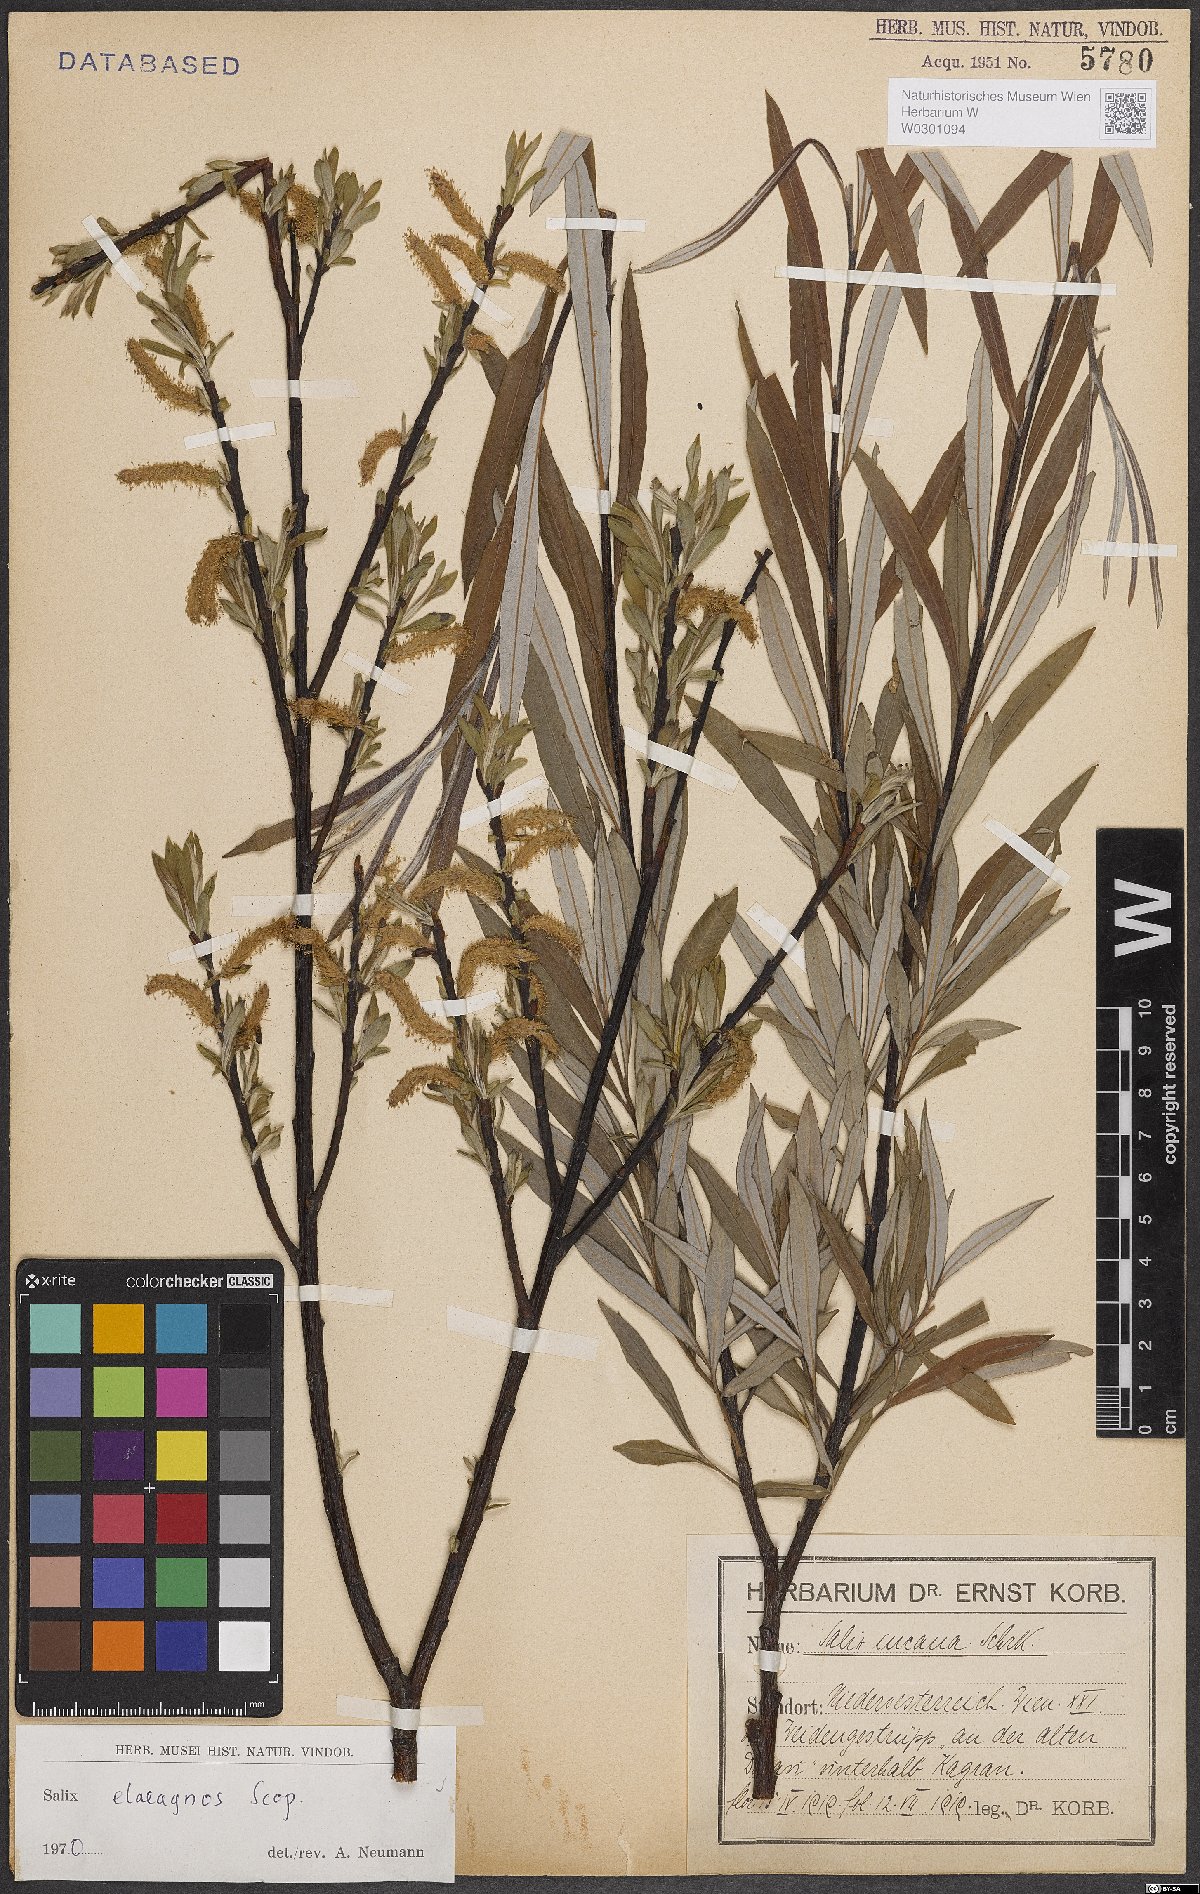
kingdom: Plantae
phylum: Tracheophyta
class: Magnoliopsida
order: Malpighiales
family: Salicaceae
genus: Salix
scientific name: Salix eleagnos
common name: Elaeagnus willow
